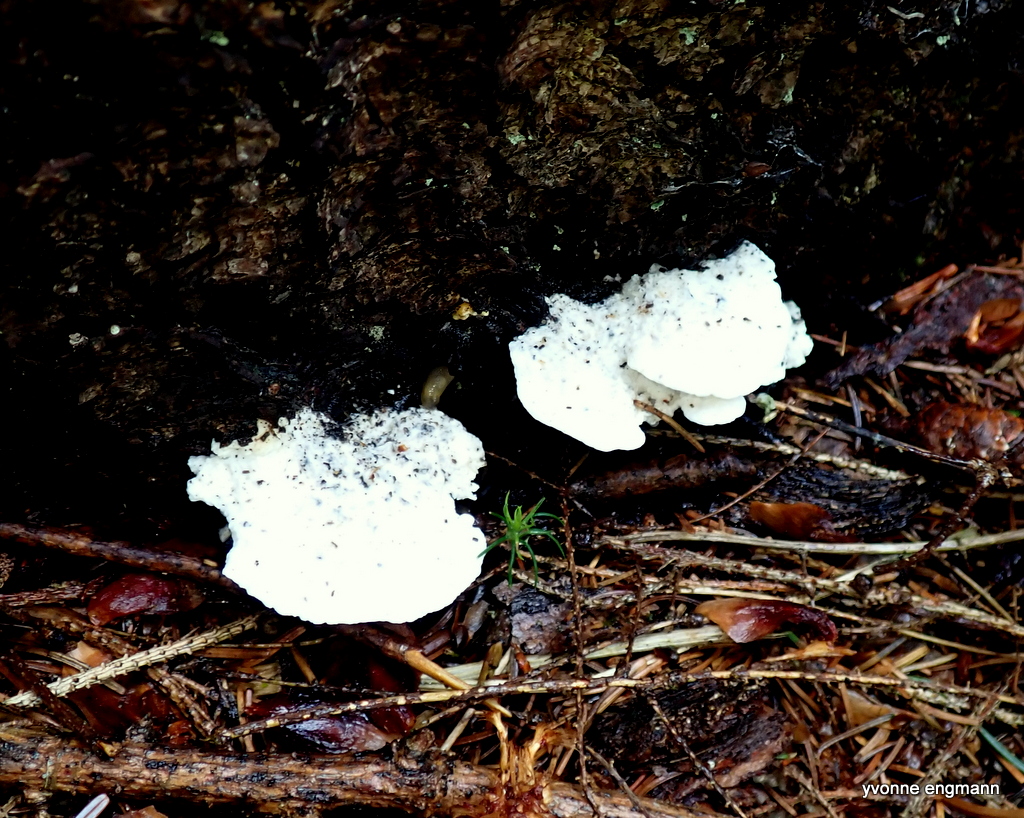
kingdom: Fungi
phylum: Basidiomycota
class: Agaricomycetes
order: Polyporales
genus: Amaropostia
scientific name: Amaropostia stiptica
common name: bitter kødporesvamp
